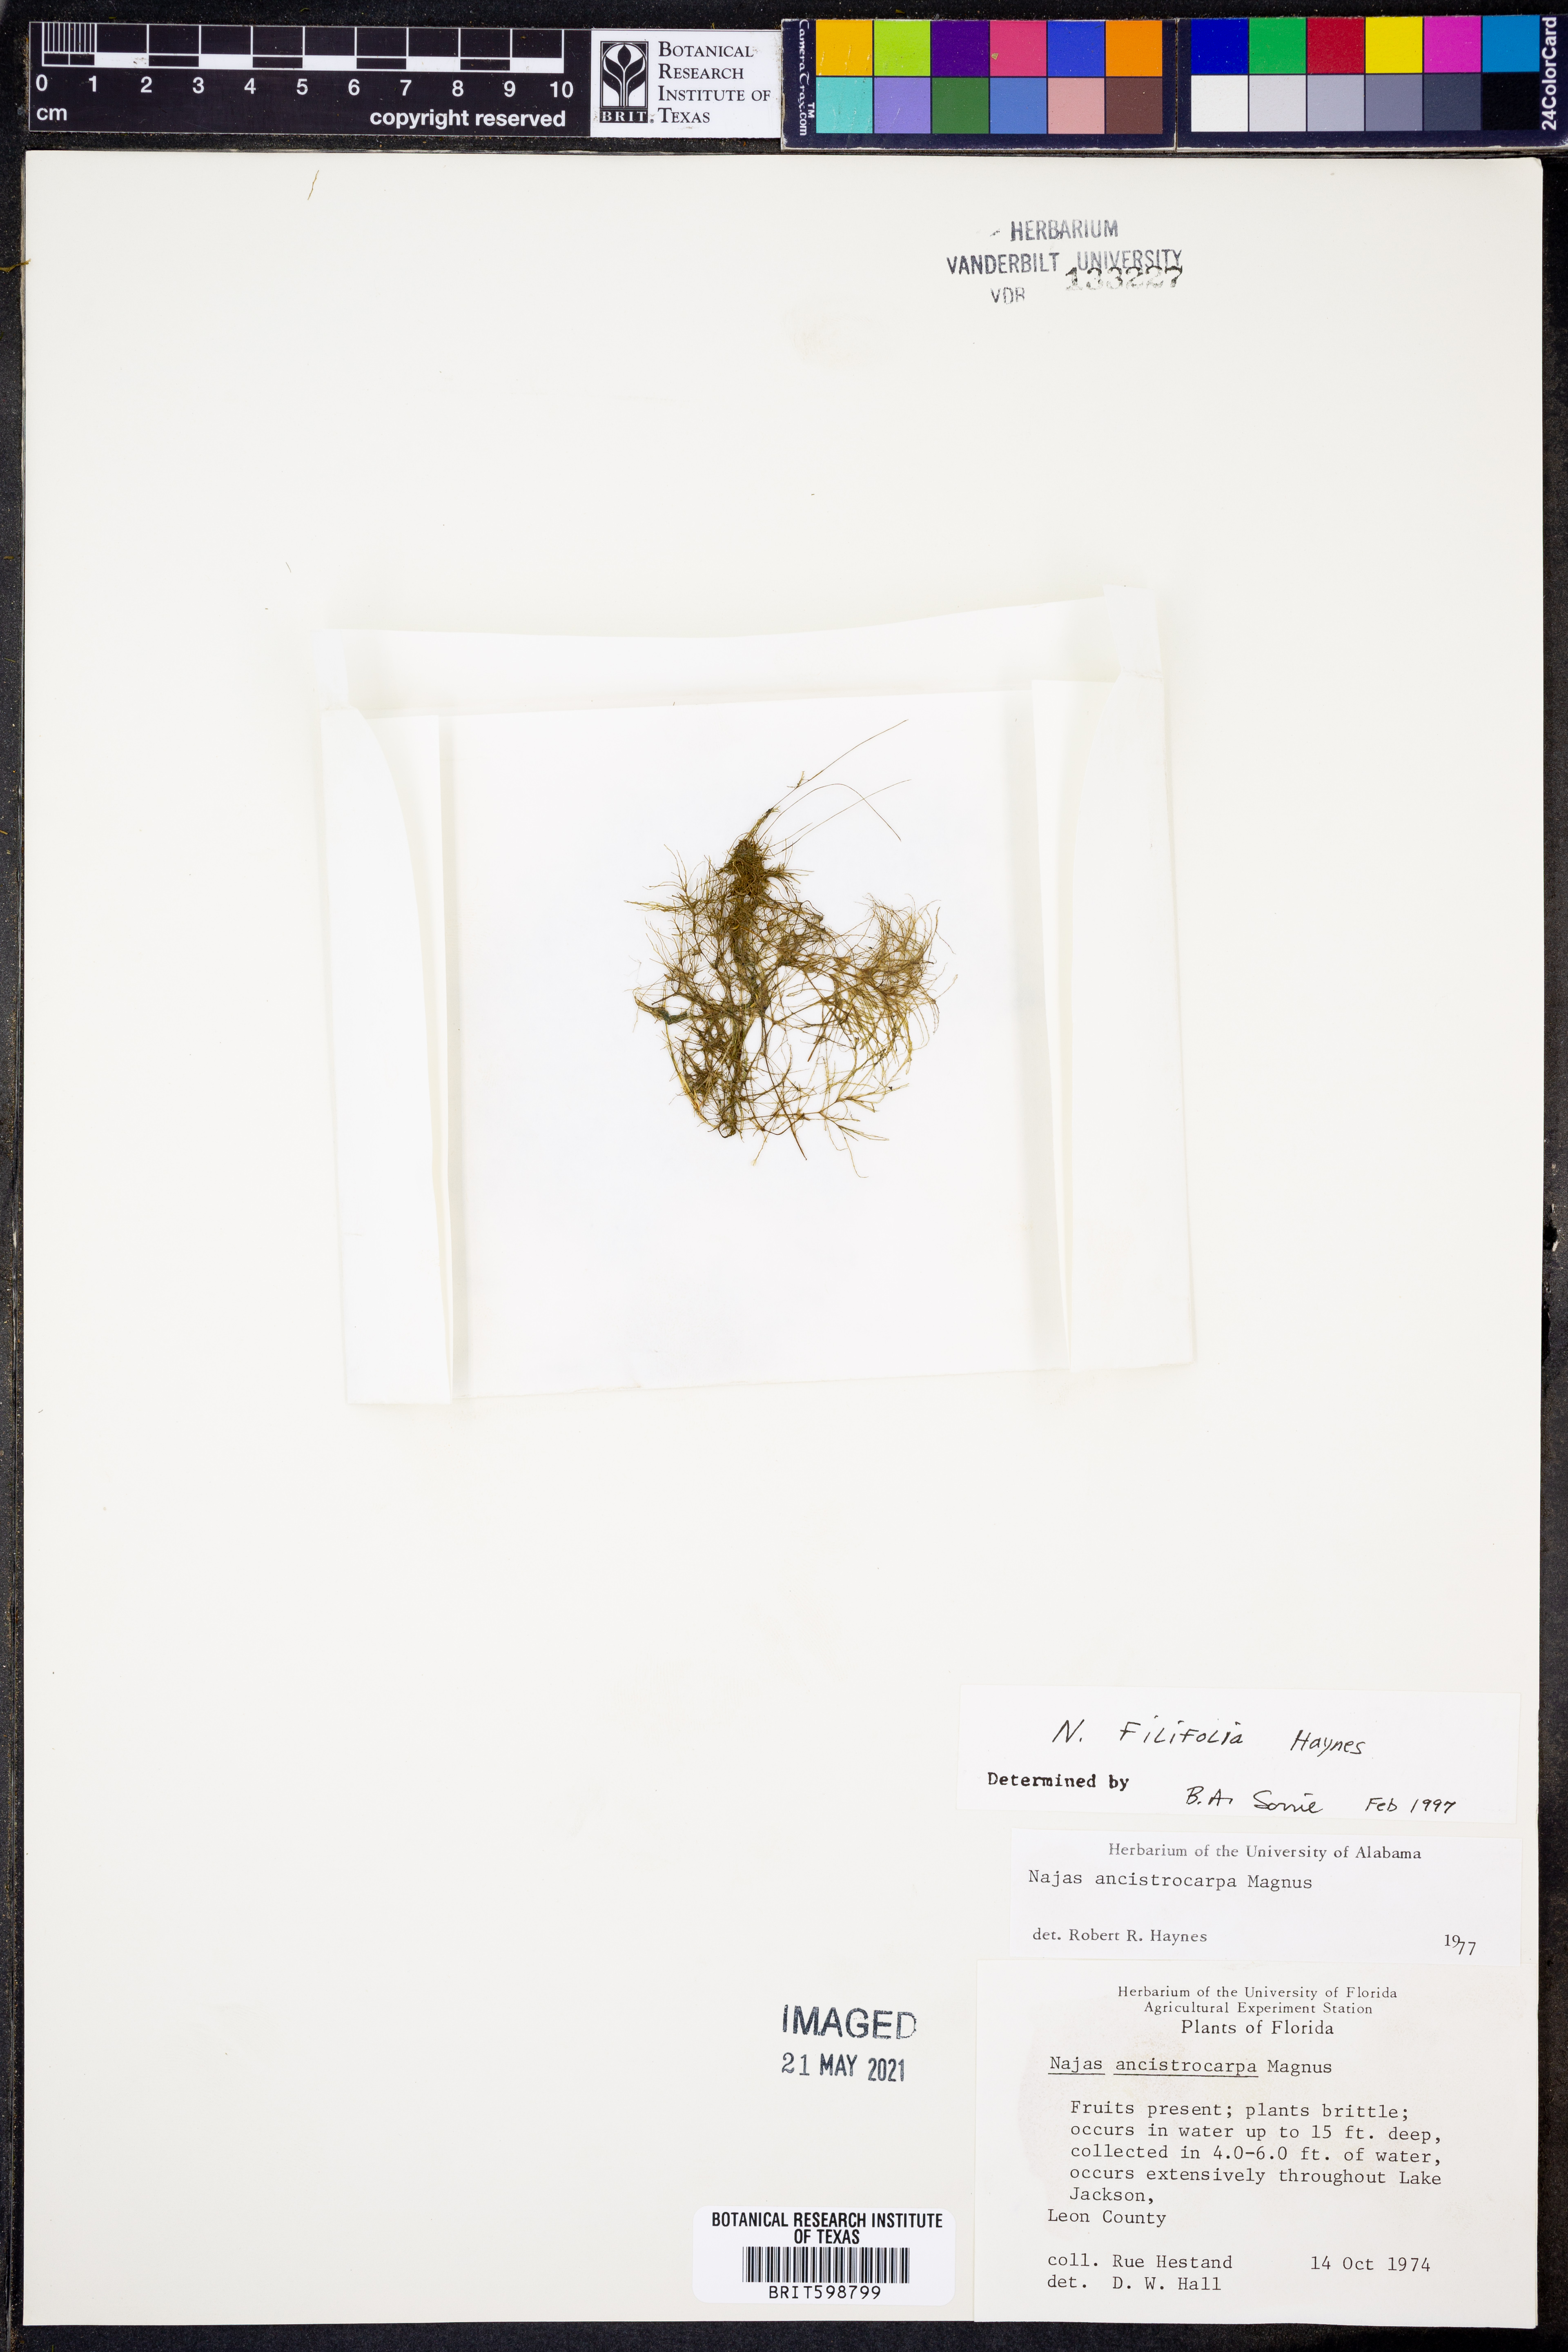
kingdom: Plantae
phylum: Tracheophyta
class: Liliopsida
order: Alismatales
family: Hydrocharitaceae
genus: Najas
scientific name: Najas filifolia
